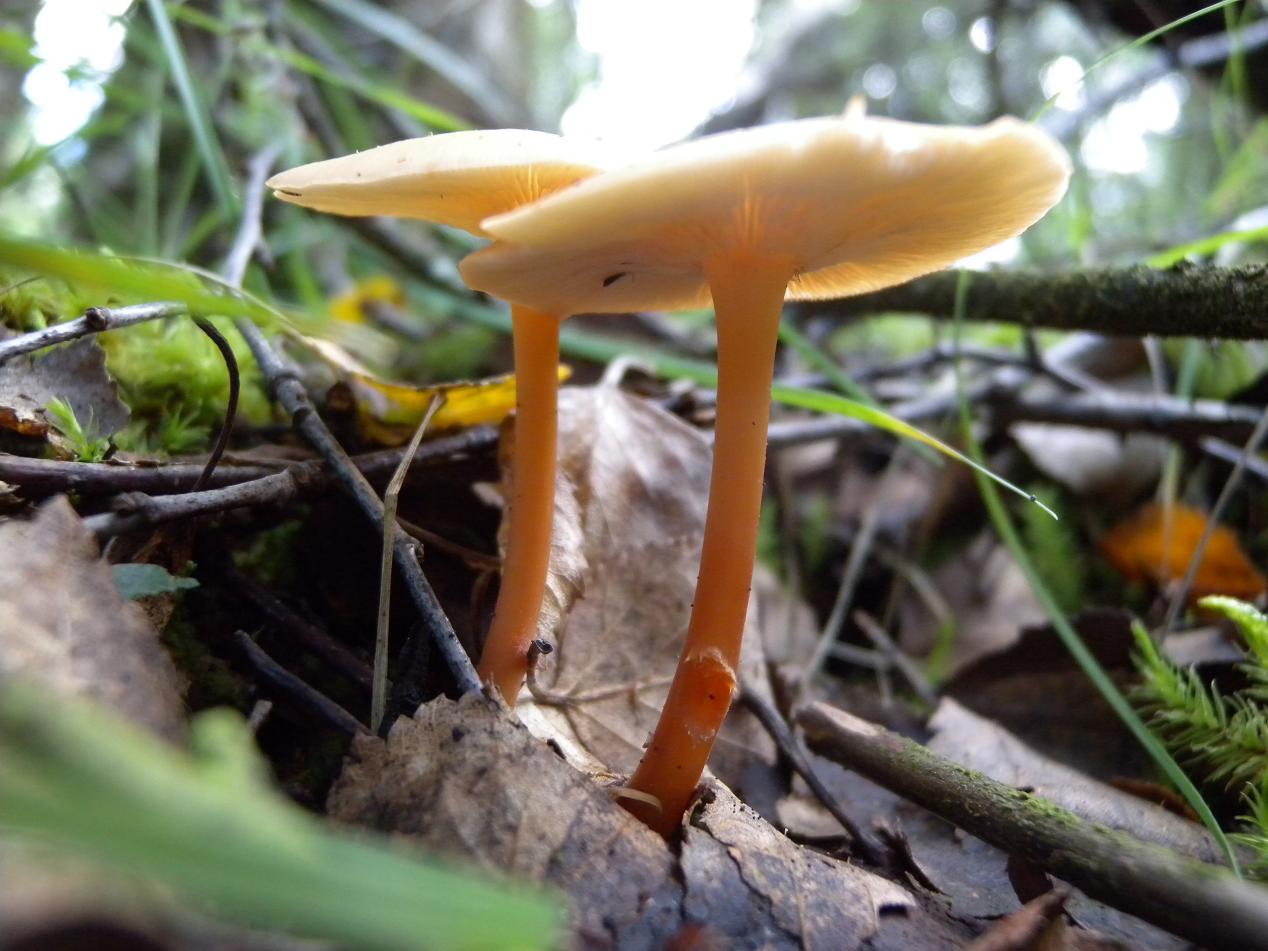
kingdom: Fungi
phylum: Basidiomycota
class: Agaricomycetes
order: Agaricales
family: Omphalotaceae
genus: Gymnopus
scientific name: Gymnopus dryophilus
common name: løv-fladhat
